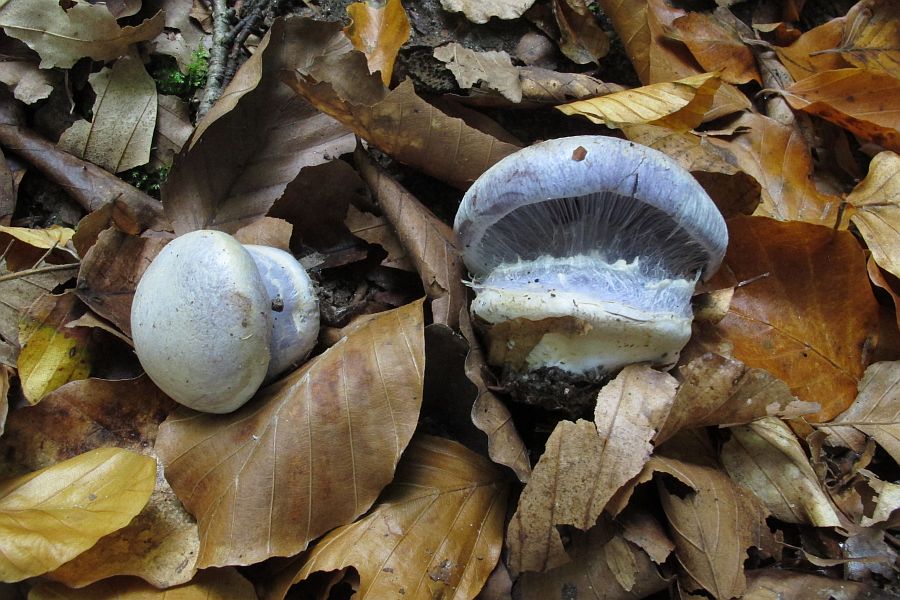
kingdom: Fungi
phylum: Basidiomycota
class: Agaricomycetes
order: Agaricales
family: Cortinariaceae
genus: Cortinarius
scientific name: Cortinarius caerulescens
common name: blåkødet slørhat
